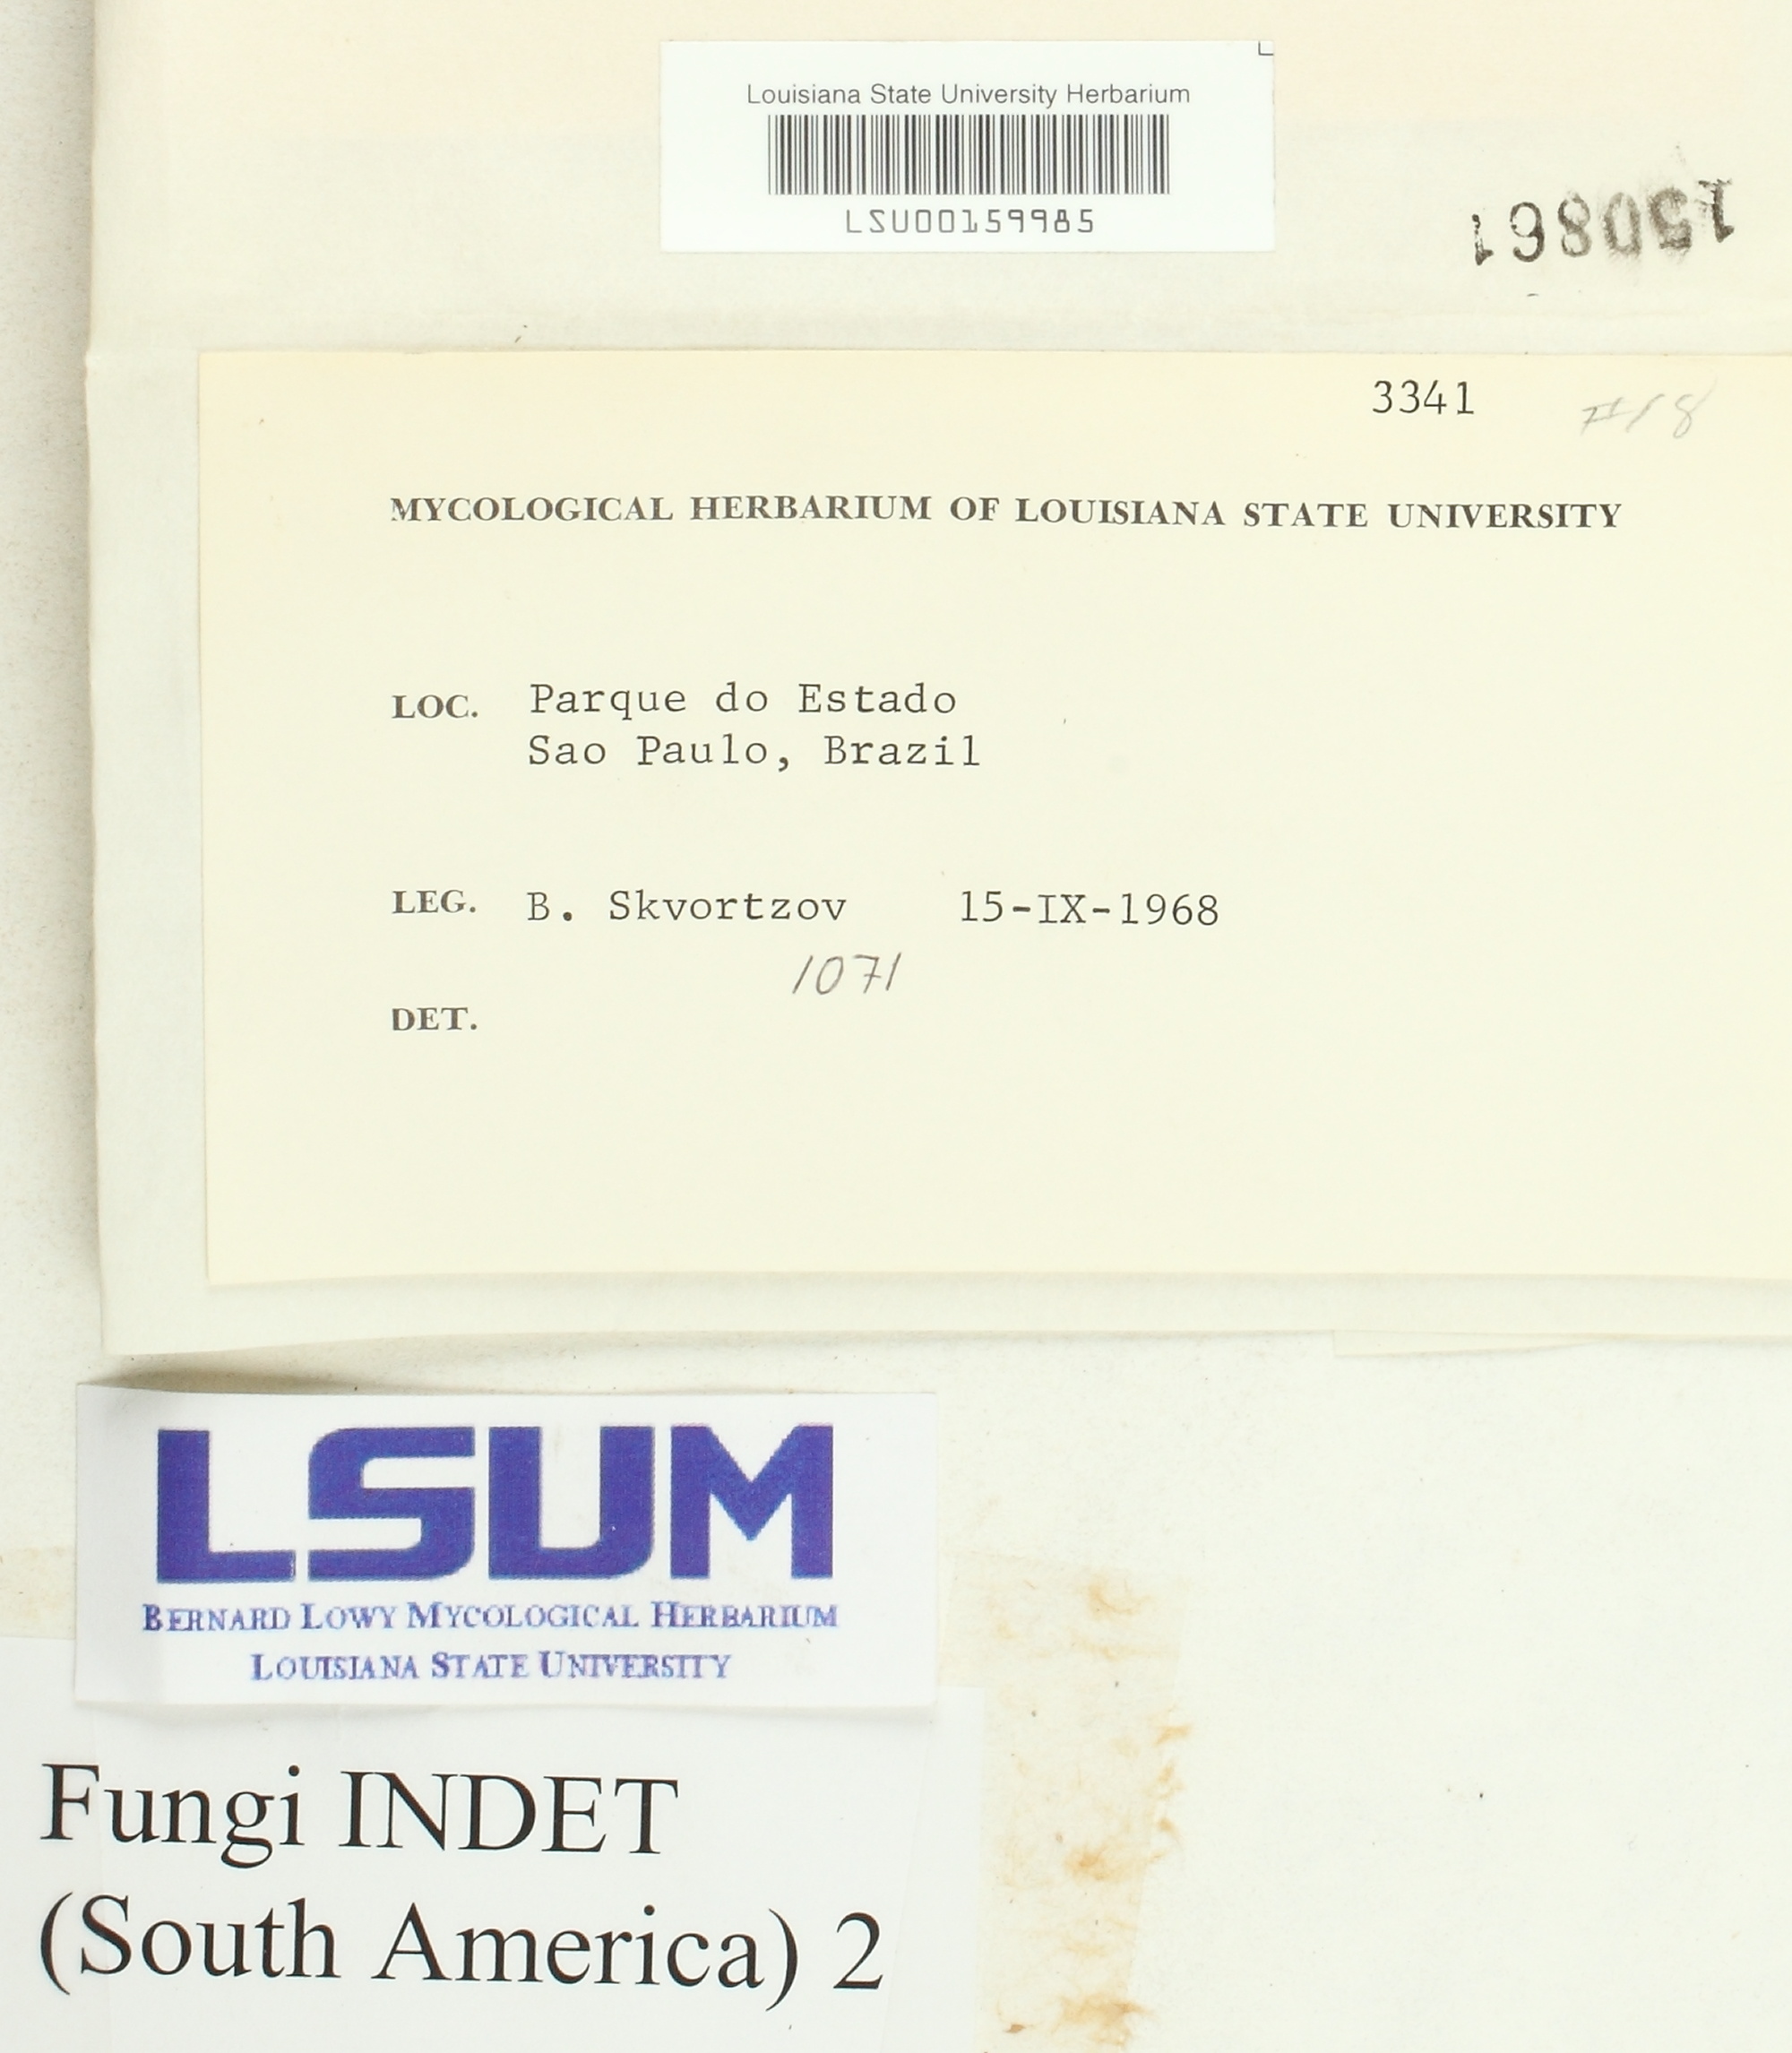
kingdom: Fungi
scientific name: Fungi
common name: Fungi
